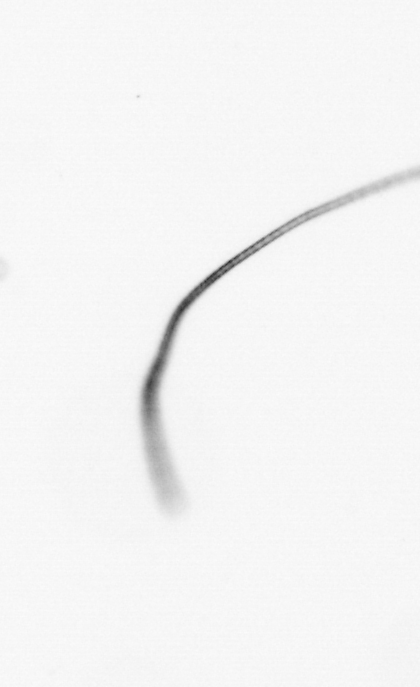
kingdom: Chromista
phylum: Ochrophyta
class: Bacillariophyceae
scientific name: Bacillariophyceae
